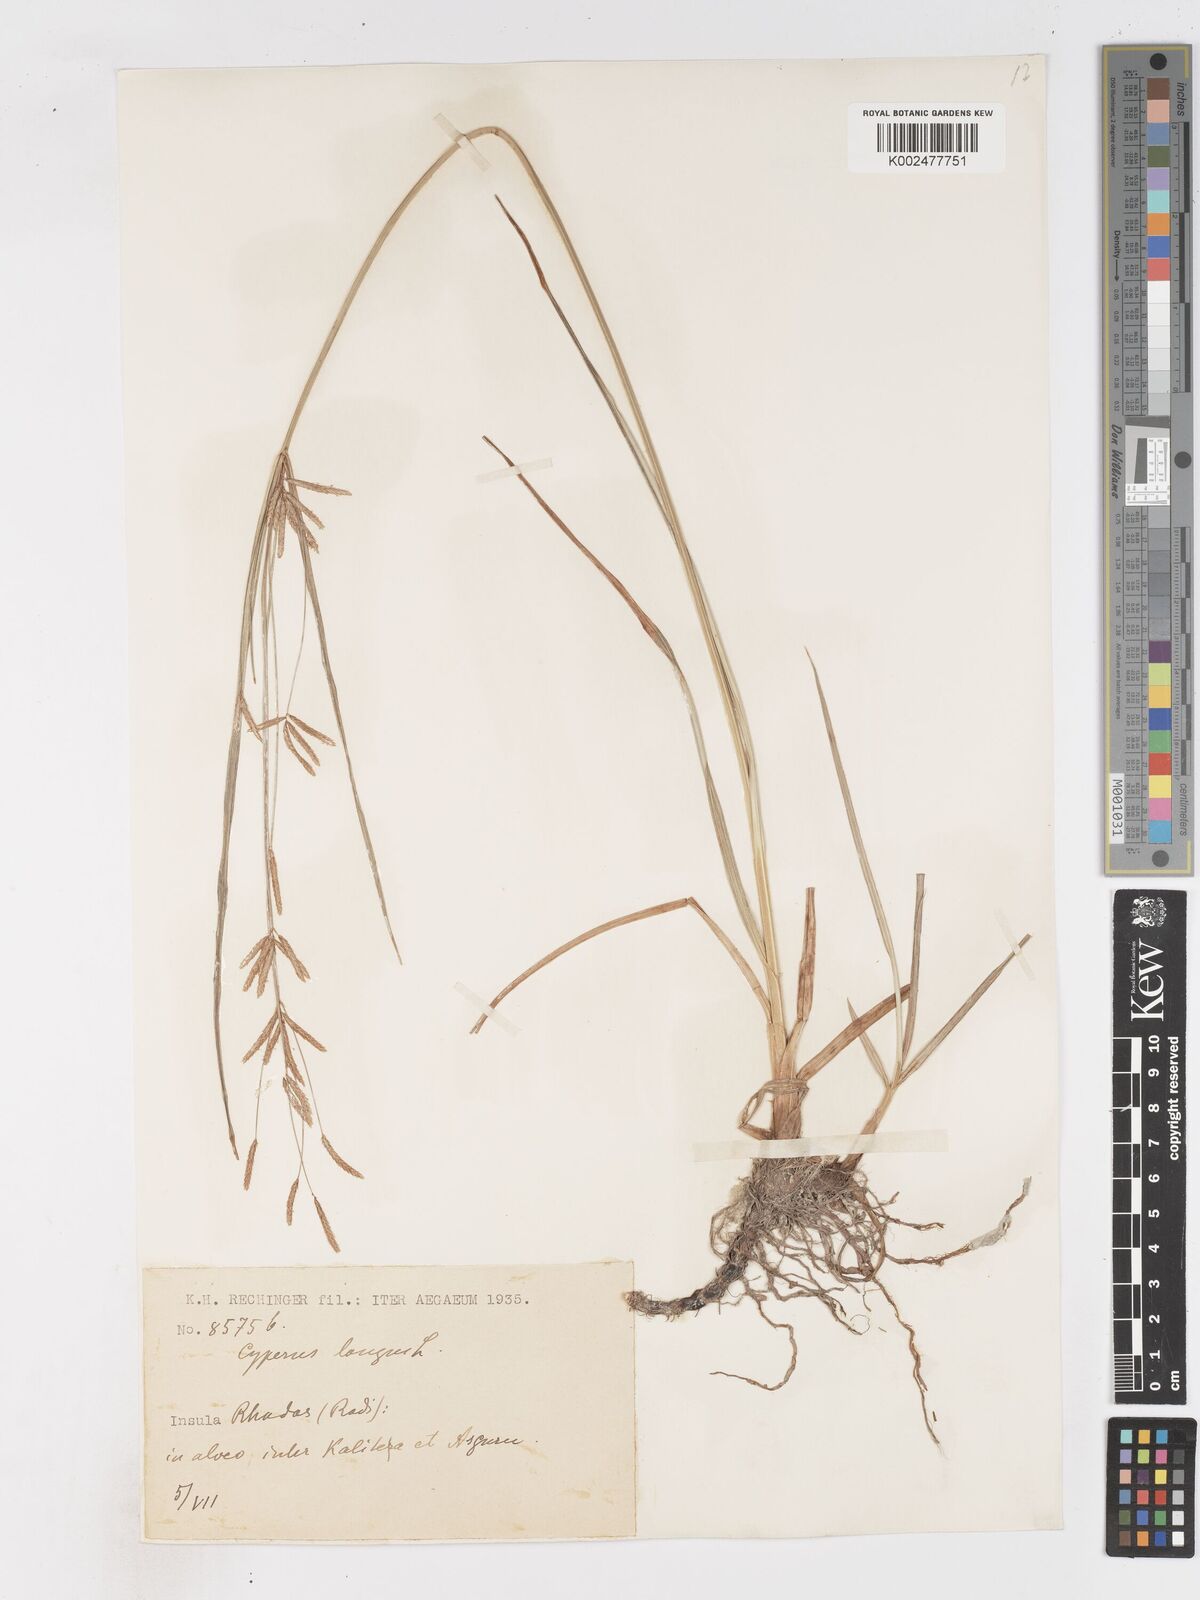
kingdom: Plantae
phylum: Tracheophyta
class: Liliopsida
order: Poales
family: Cyperaceae
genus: Cyperus
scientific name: Cyperus longus
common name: Galingale
